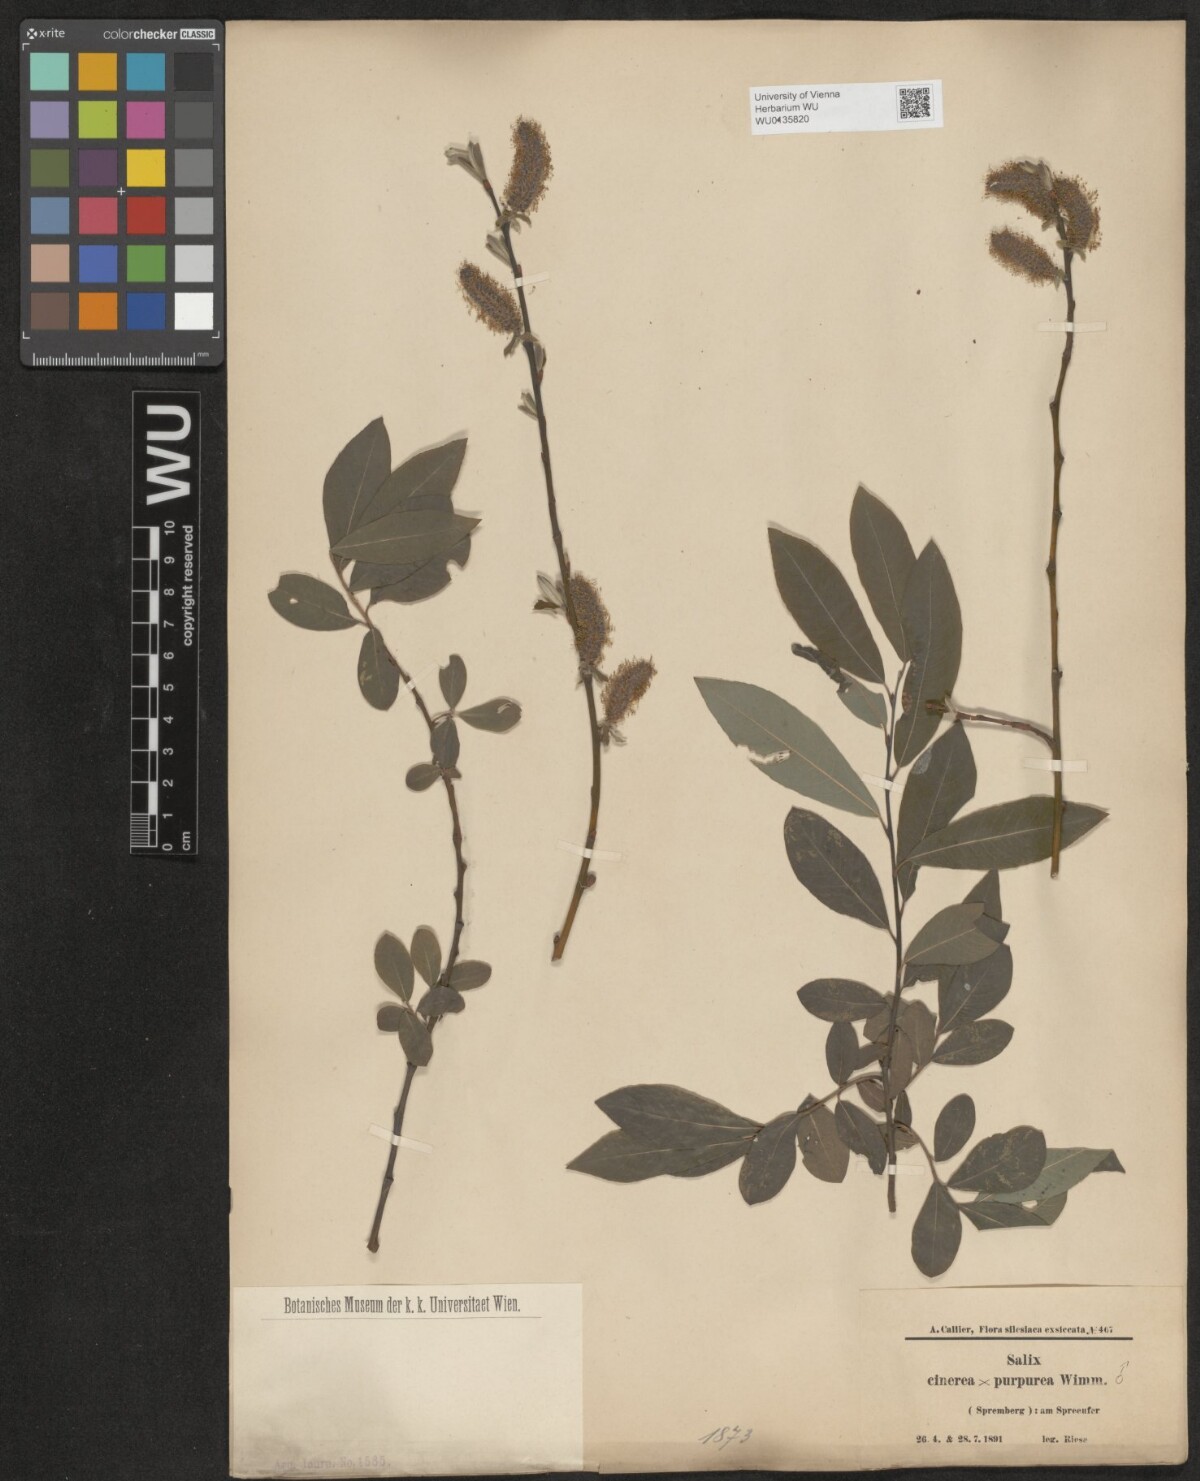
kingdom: Plantae
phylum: Tracheophyta
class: Magnoliopsida
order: Malpighiales
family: Salicaceae
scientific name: Salicaceae
